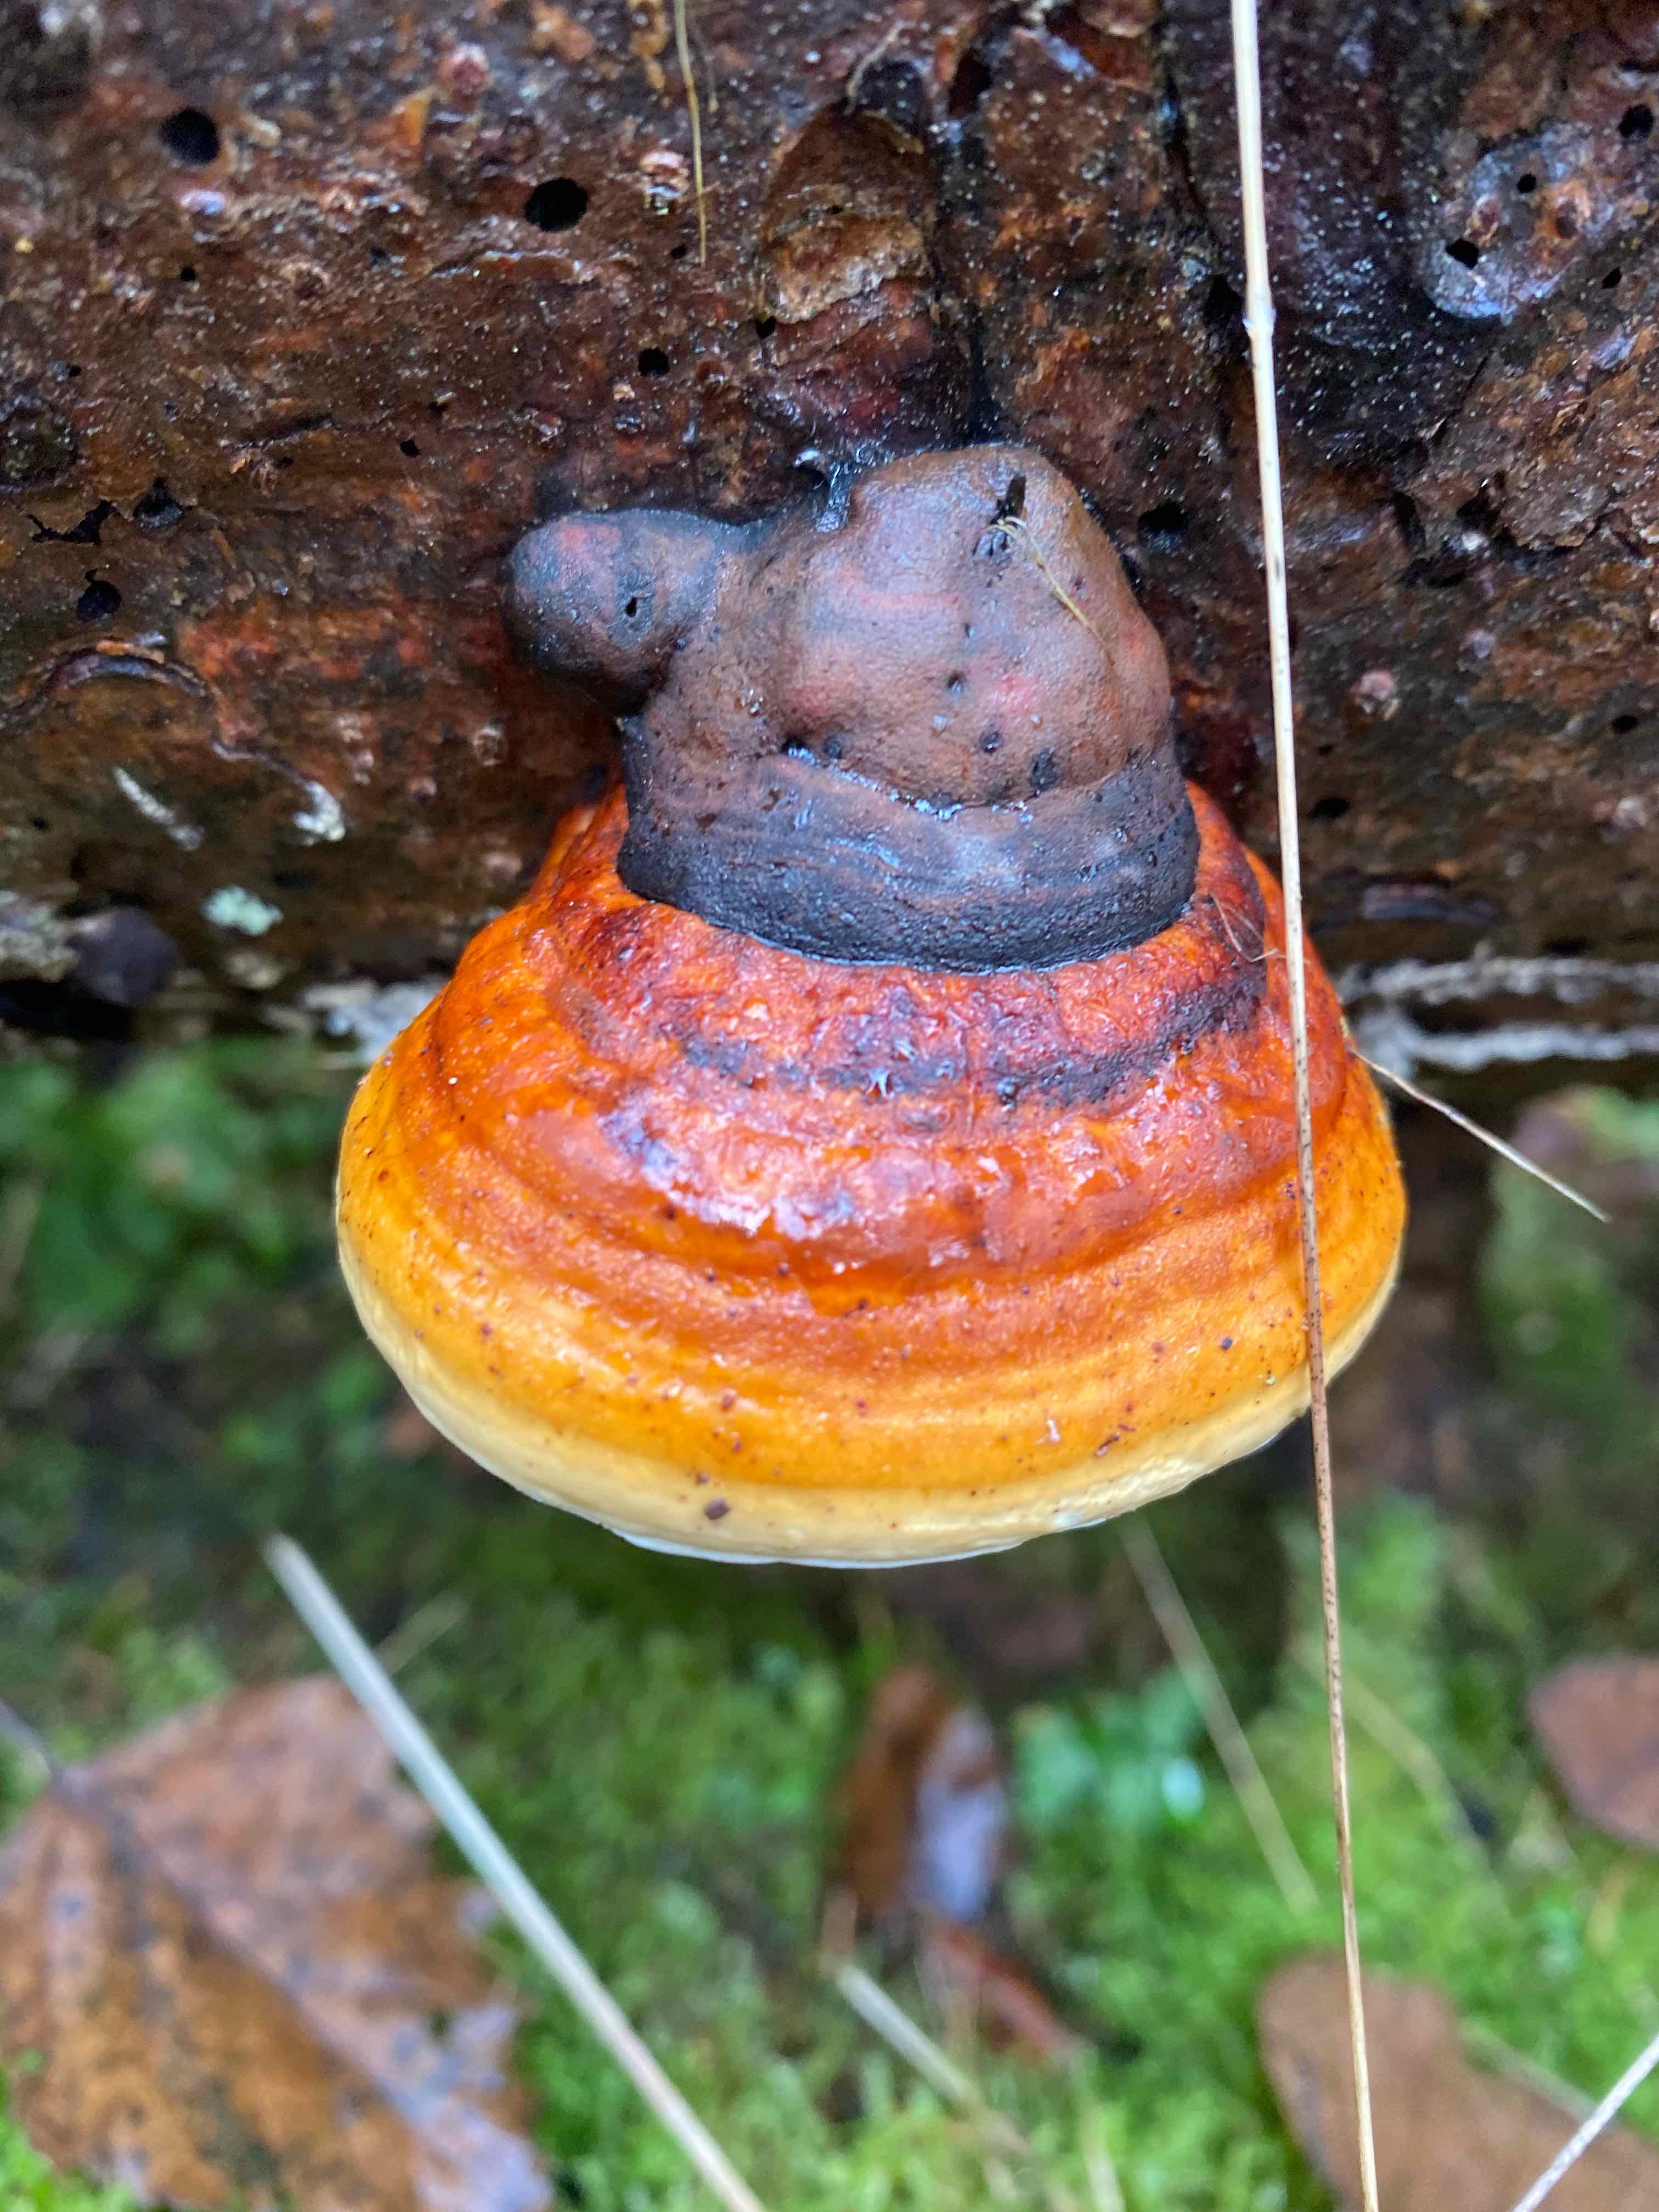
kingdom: Fungi
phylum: Basidiomycota
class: Agaricomycetes
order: Polyporales
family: Fomitopsidaceae
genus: Fomitopsis
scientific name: Fomitopsis pinicola
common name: randbæltet hovporesvamp
